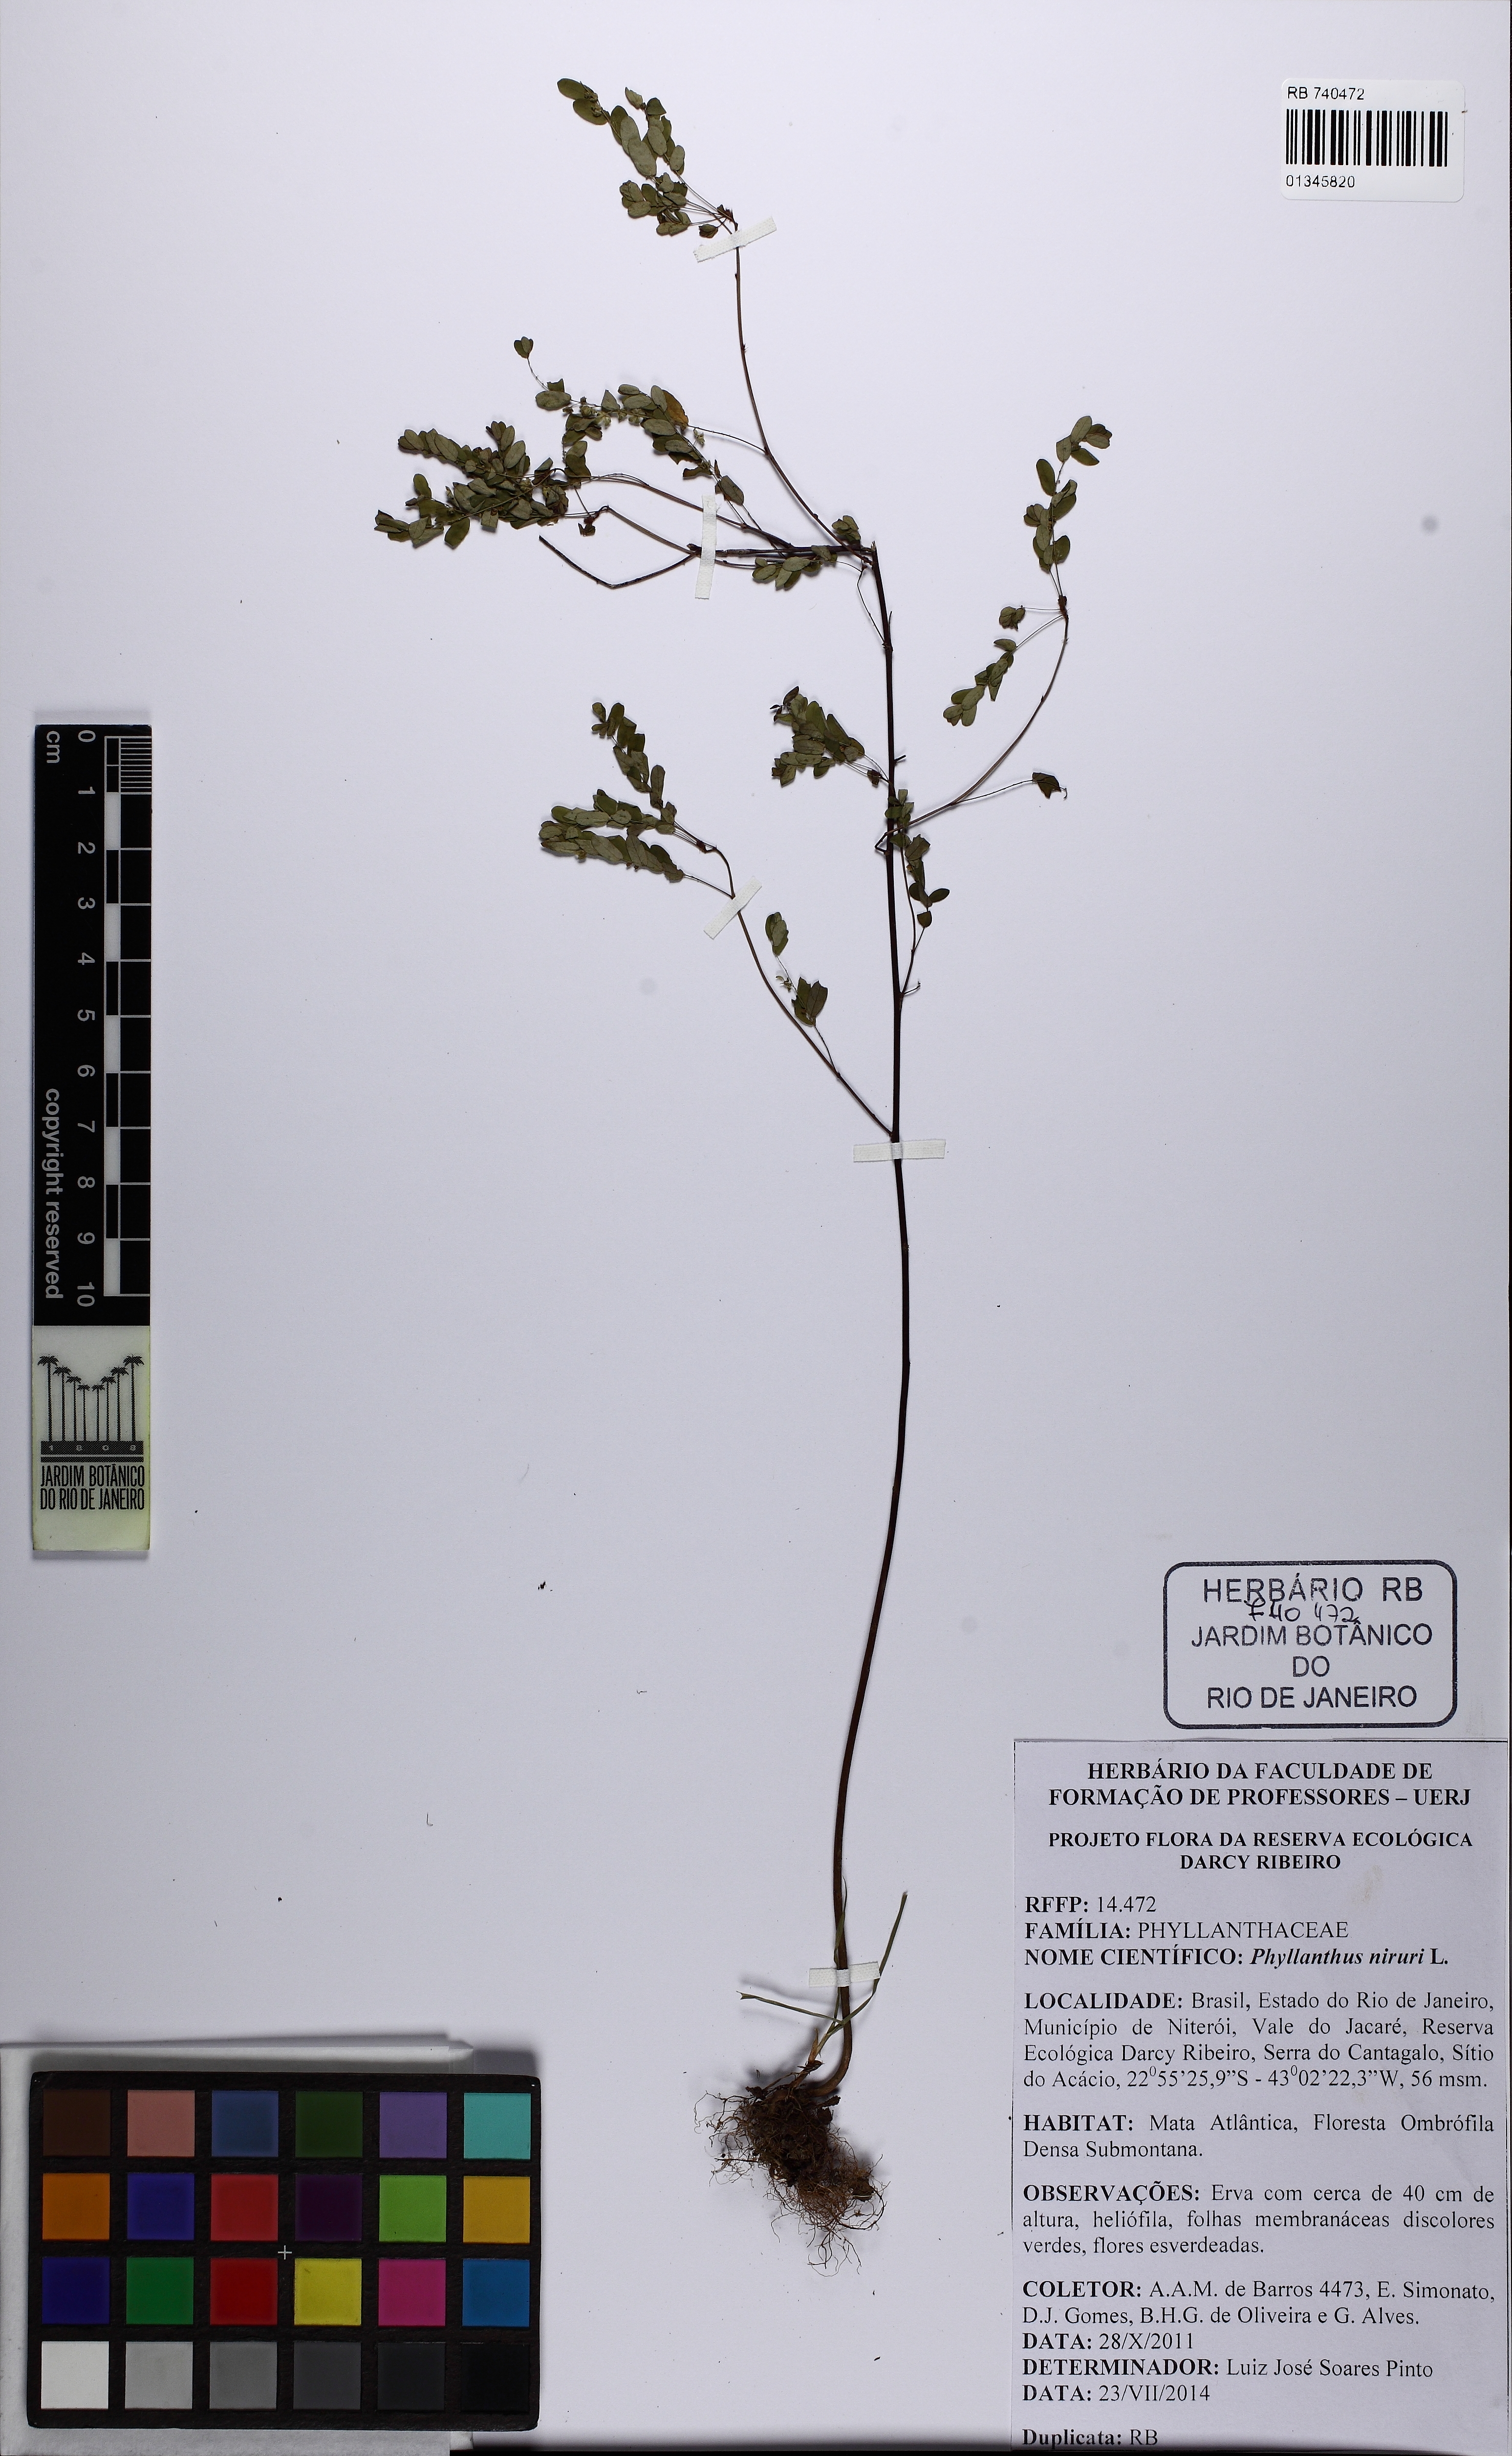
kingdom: Plantae
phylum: Tracheophyta
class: Magnoliopsida
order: Malpighiales
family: Phyllanthaceae
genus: Phyllanthus
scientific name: Phyllanthus niruri
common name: Niruri
